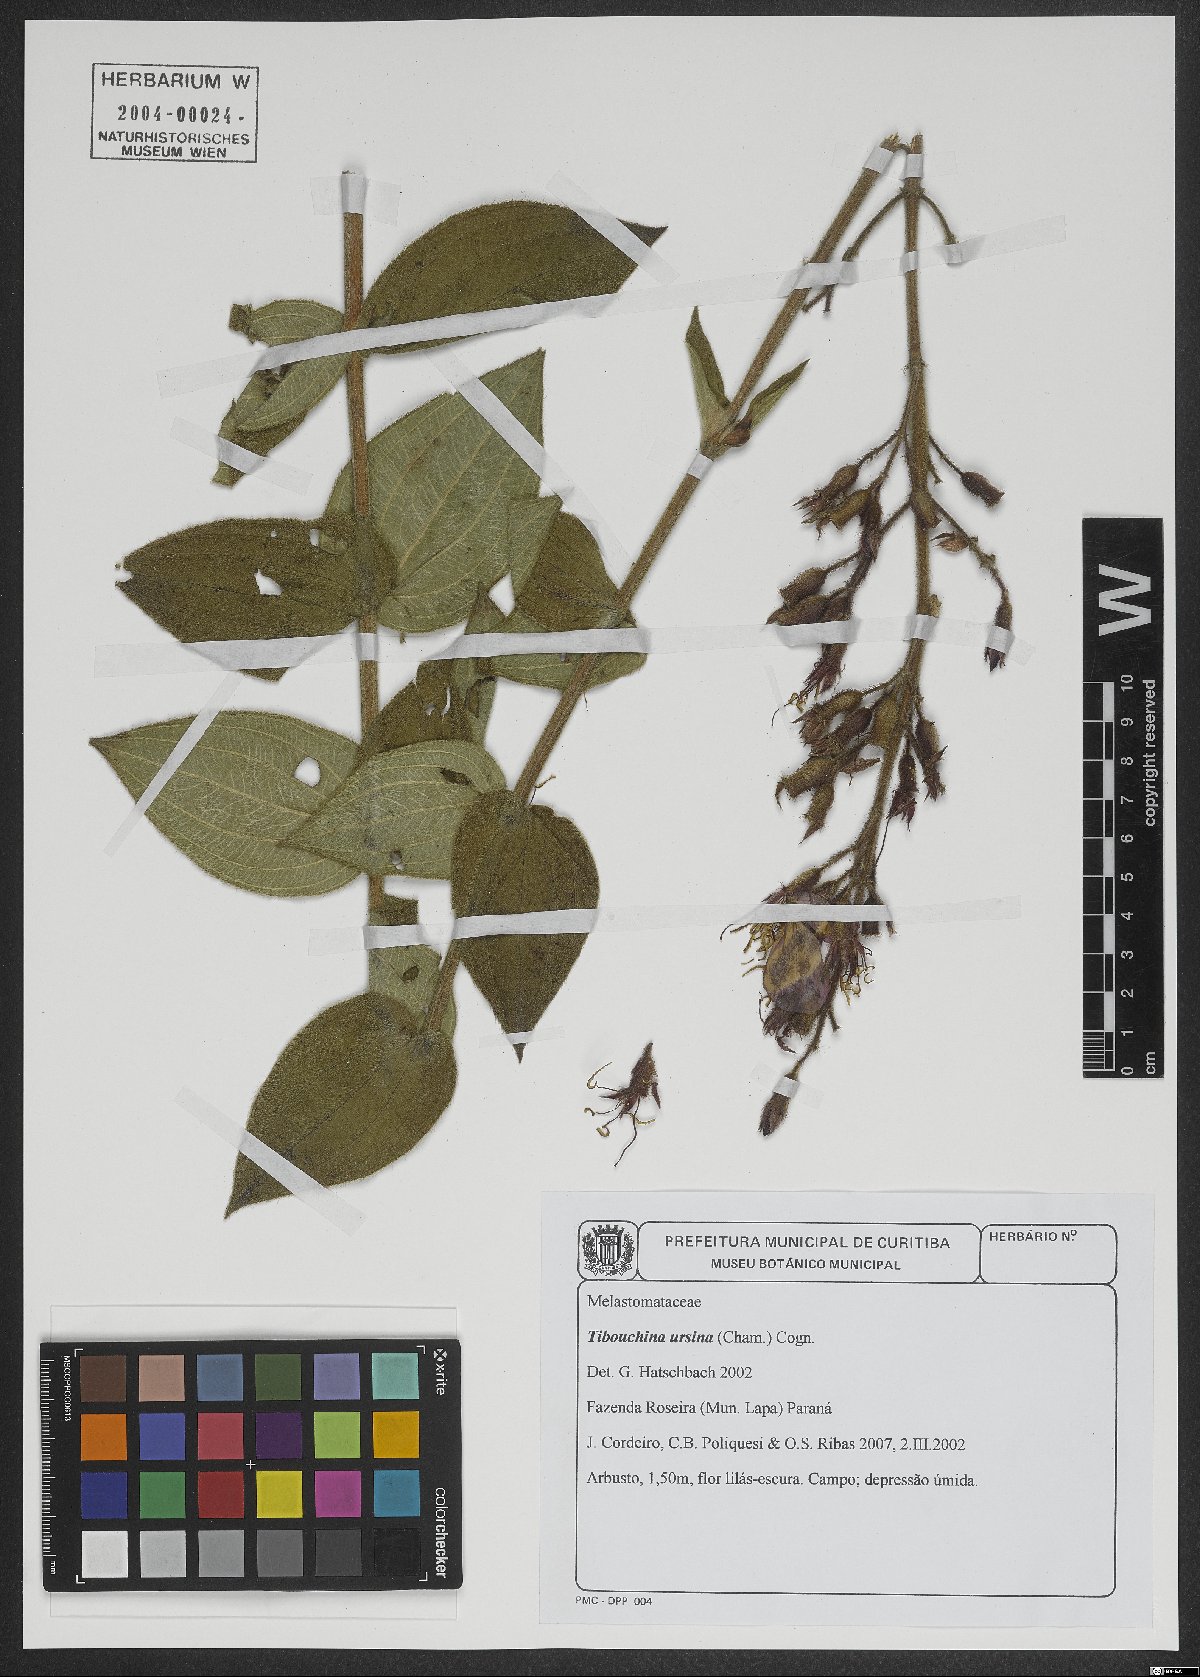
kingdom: Plantae
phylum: Tracheophyta
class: Magnoliopsida
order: Myrtales
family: Melastomataceae
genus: Pleroma
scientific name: Pleroma ursinum
